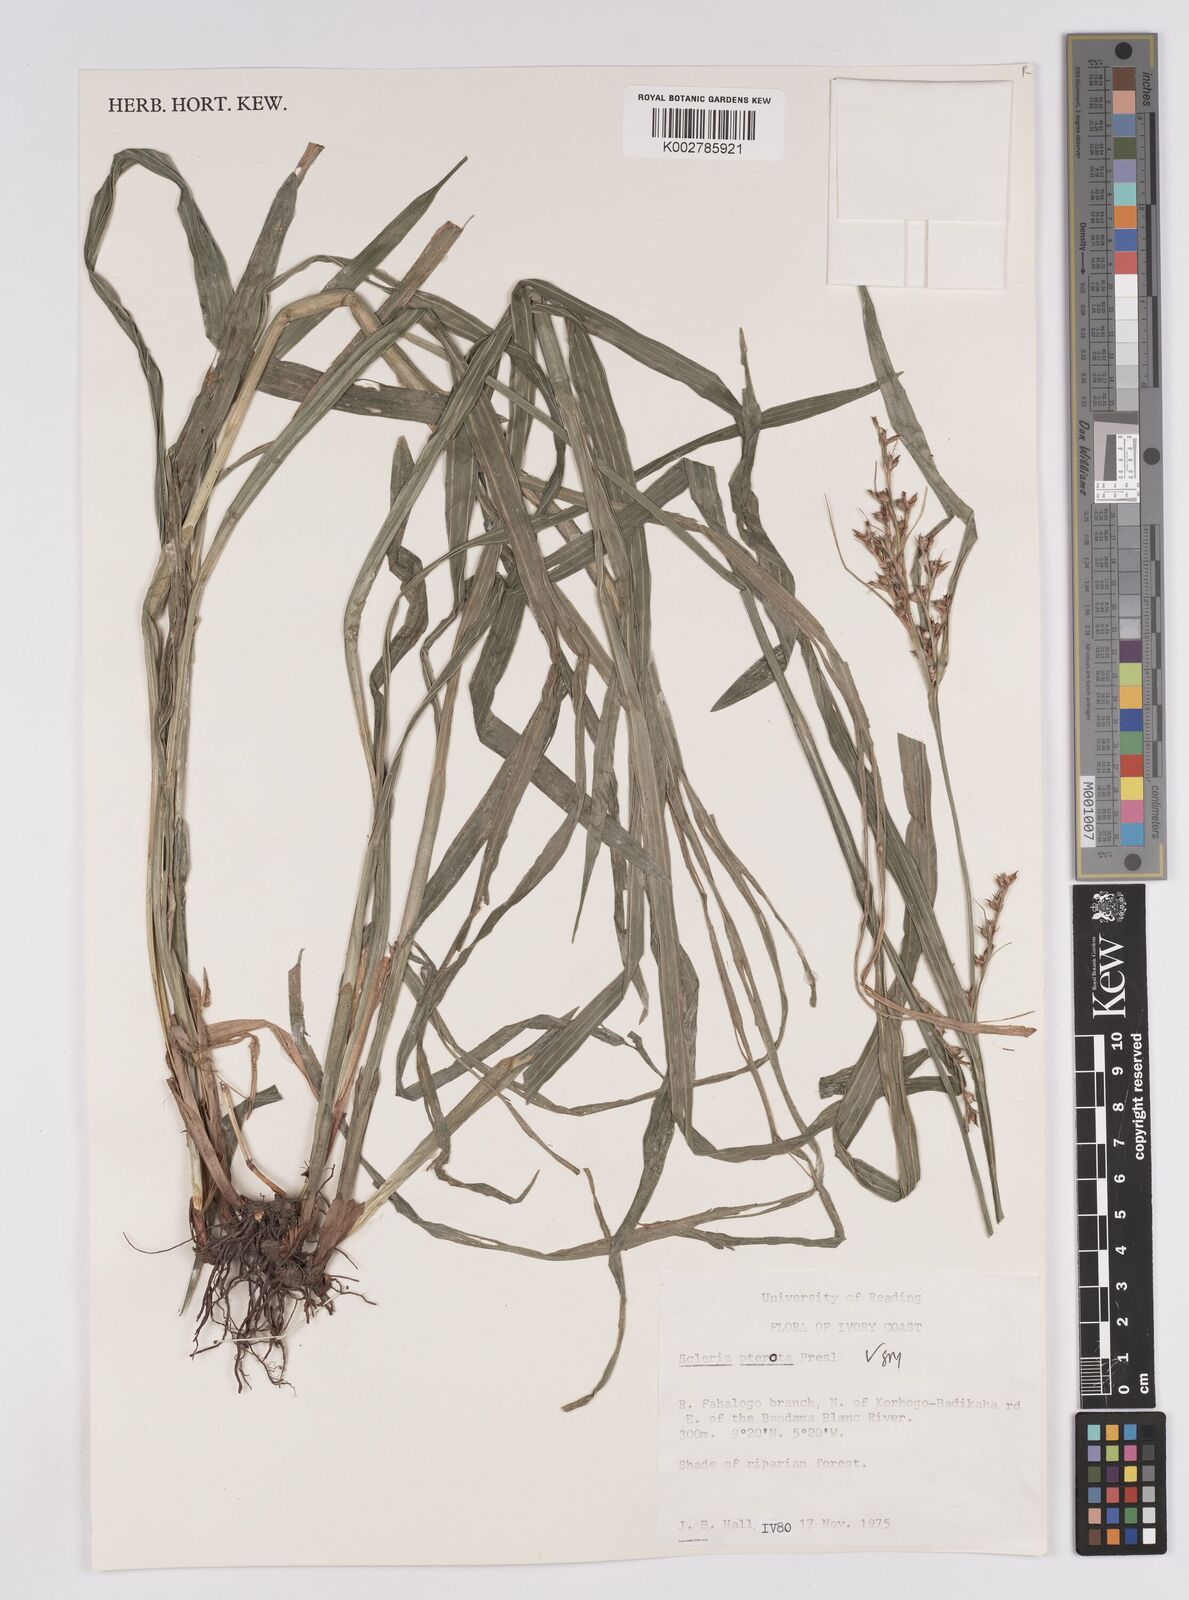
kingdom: Plantae
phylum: Tracheophyta
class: Liliopsida
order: Poales
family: Cyperaceae
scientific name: Cyperaceae
